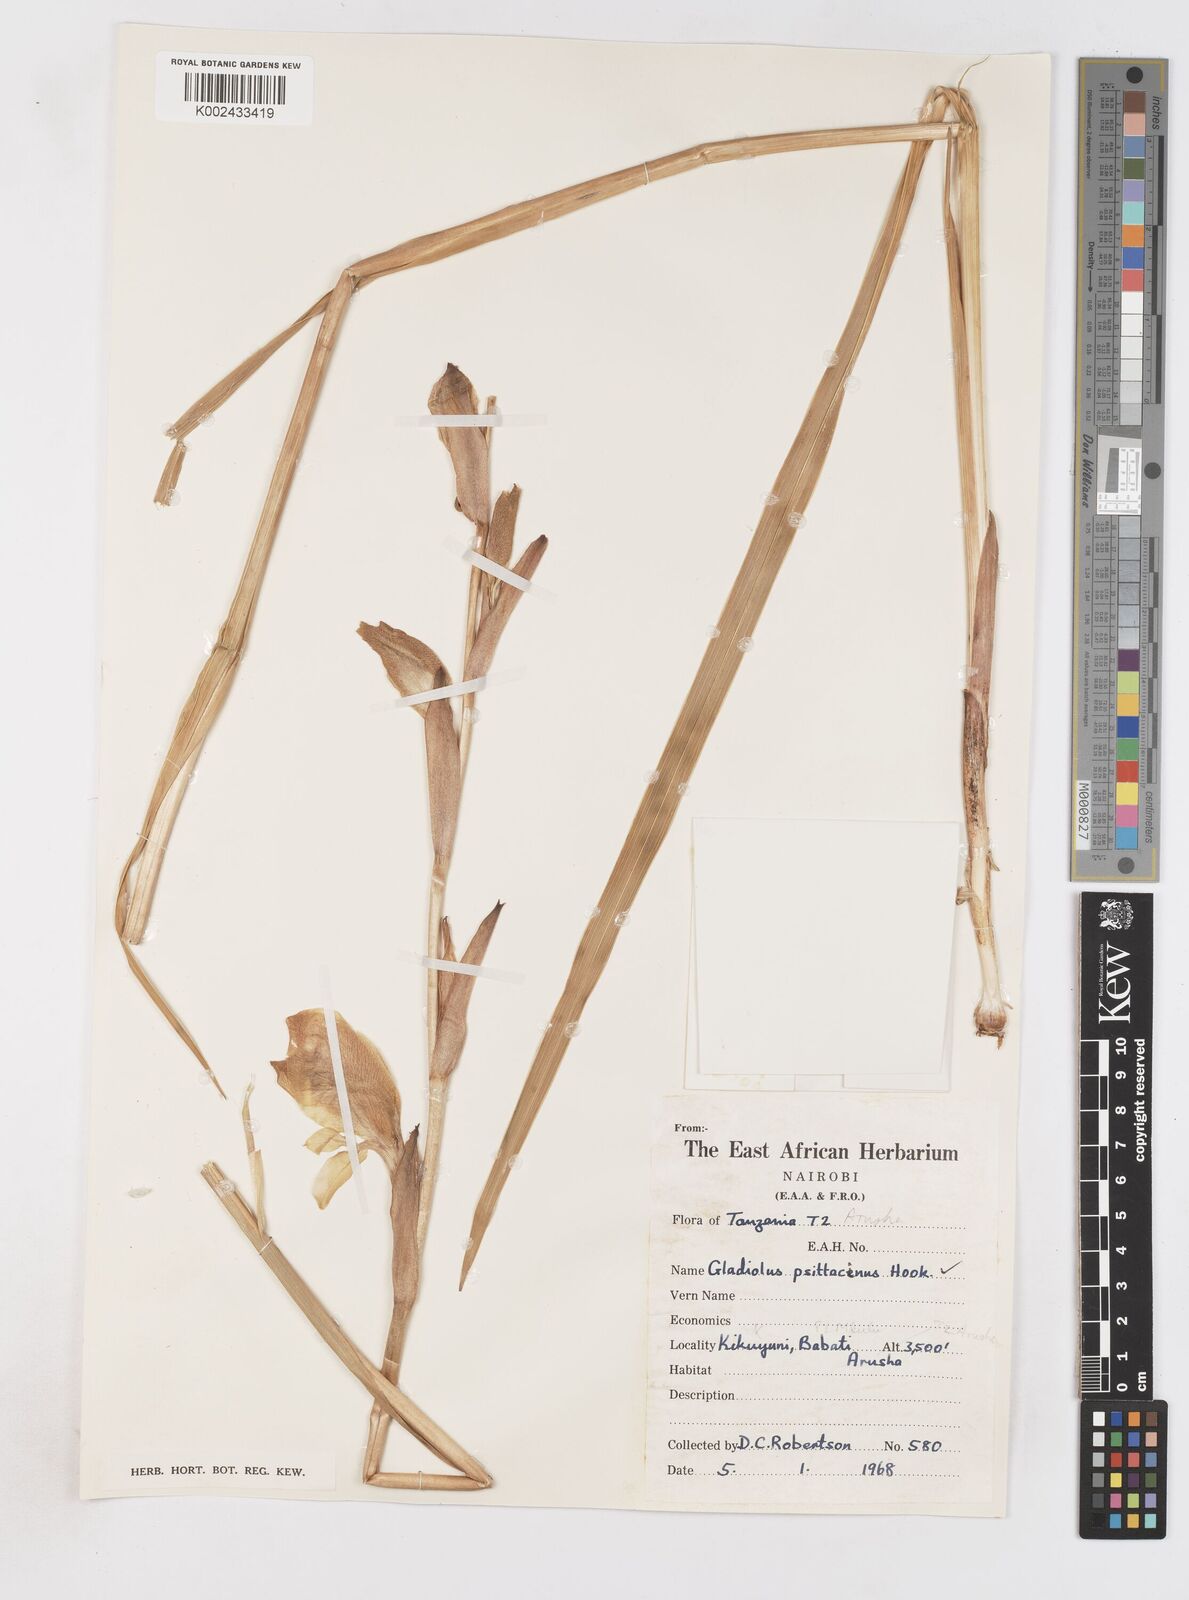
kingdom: Plantae
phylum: Tracheophyta
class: Liliopsida
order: Asparagales
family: Iridaceae
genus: Gladiolus
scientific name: Gladiolus dalenii
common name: Cornflag
